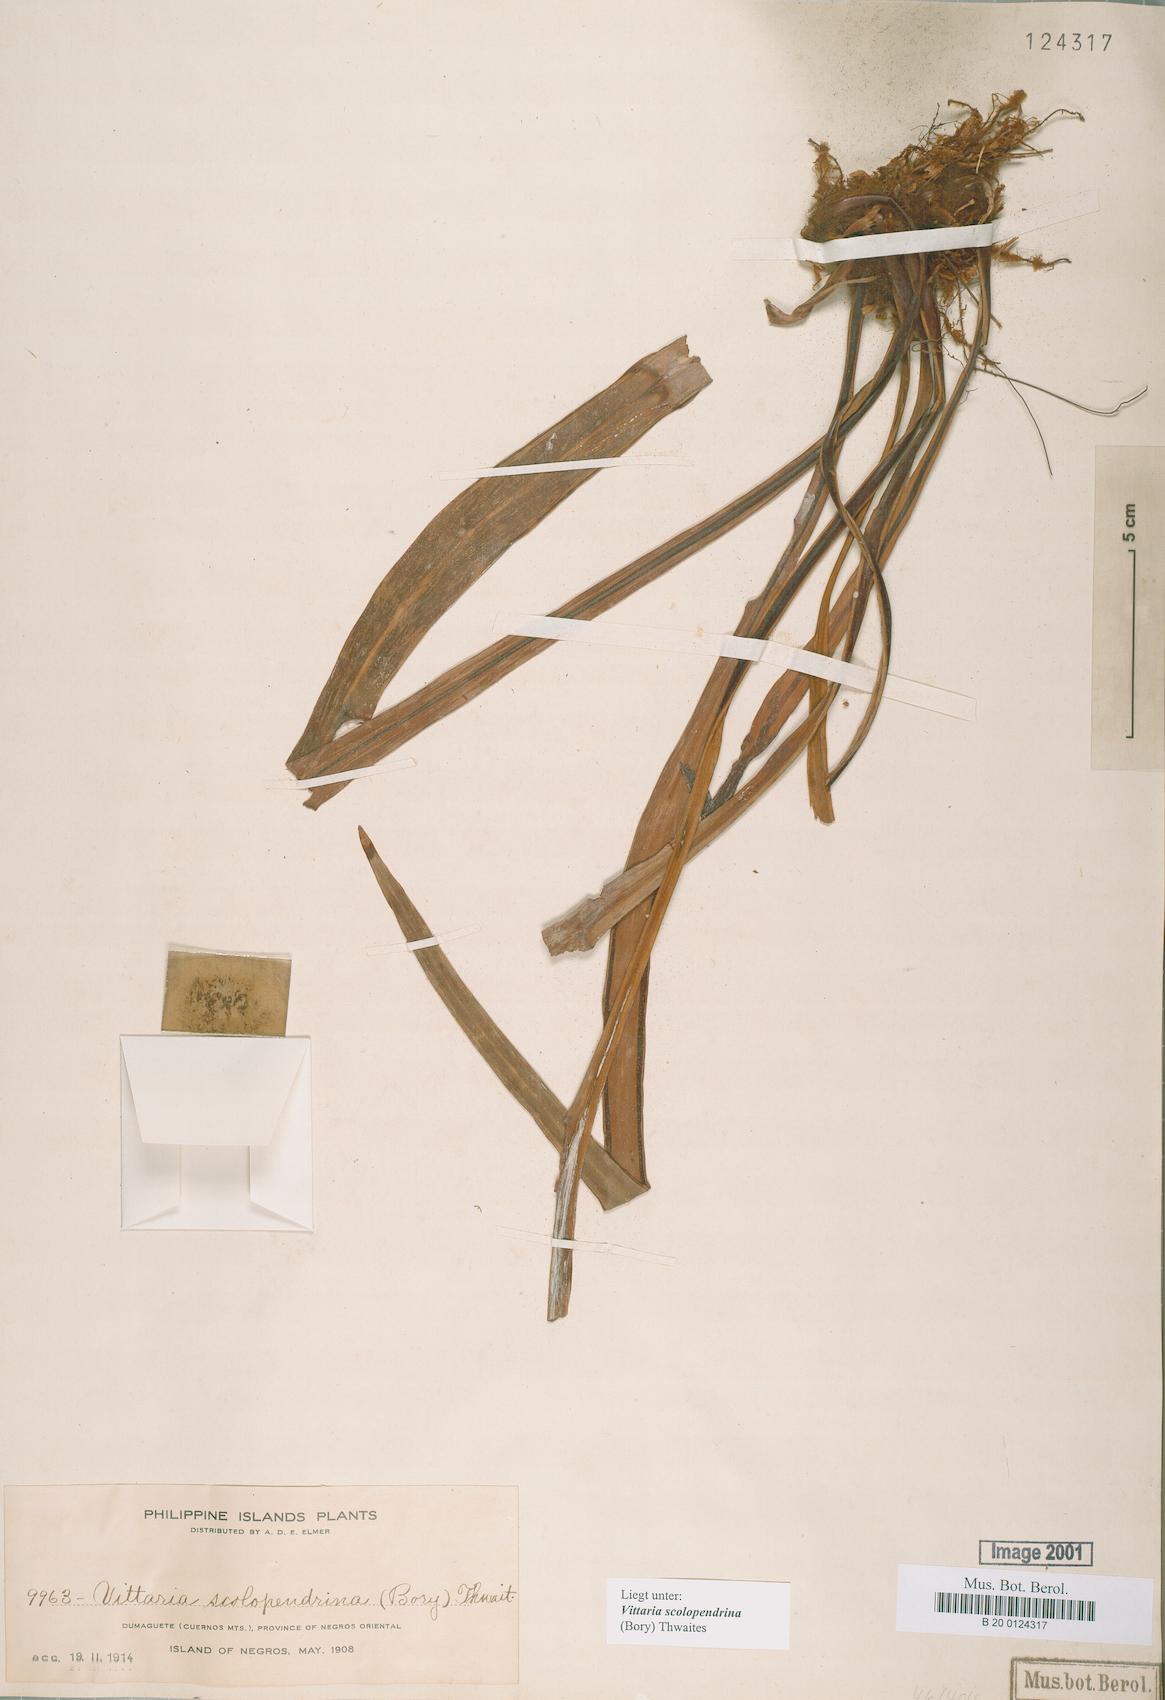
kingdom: Plantae
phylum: Tracheophyta
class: Polypodiopsida
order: Polypodiales
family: Pteridaceae
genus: Haplopteris
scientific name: Haplopteris scolopendrina
